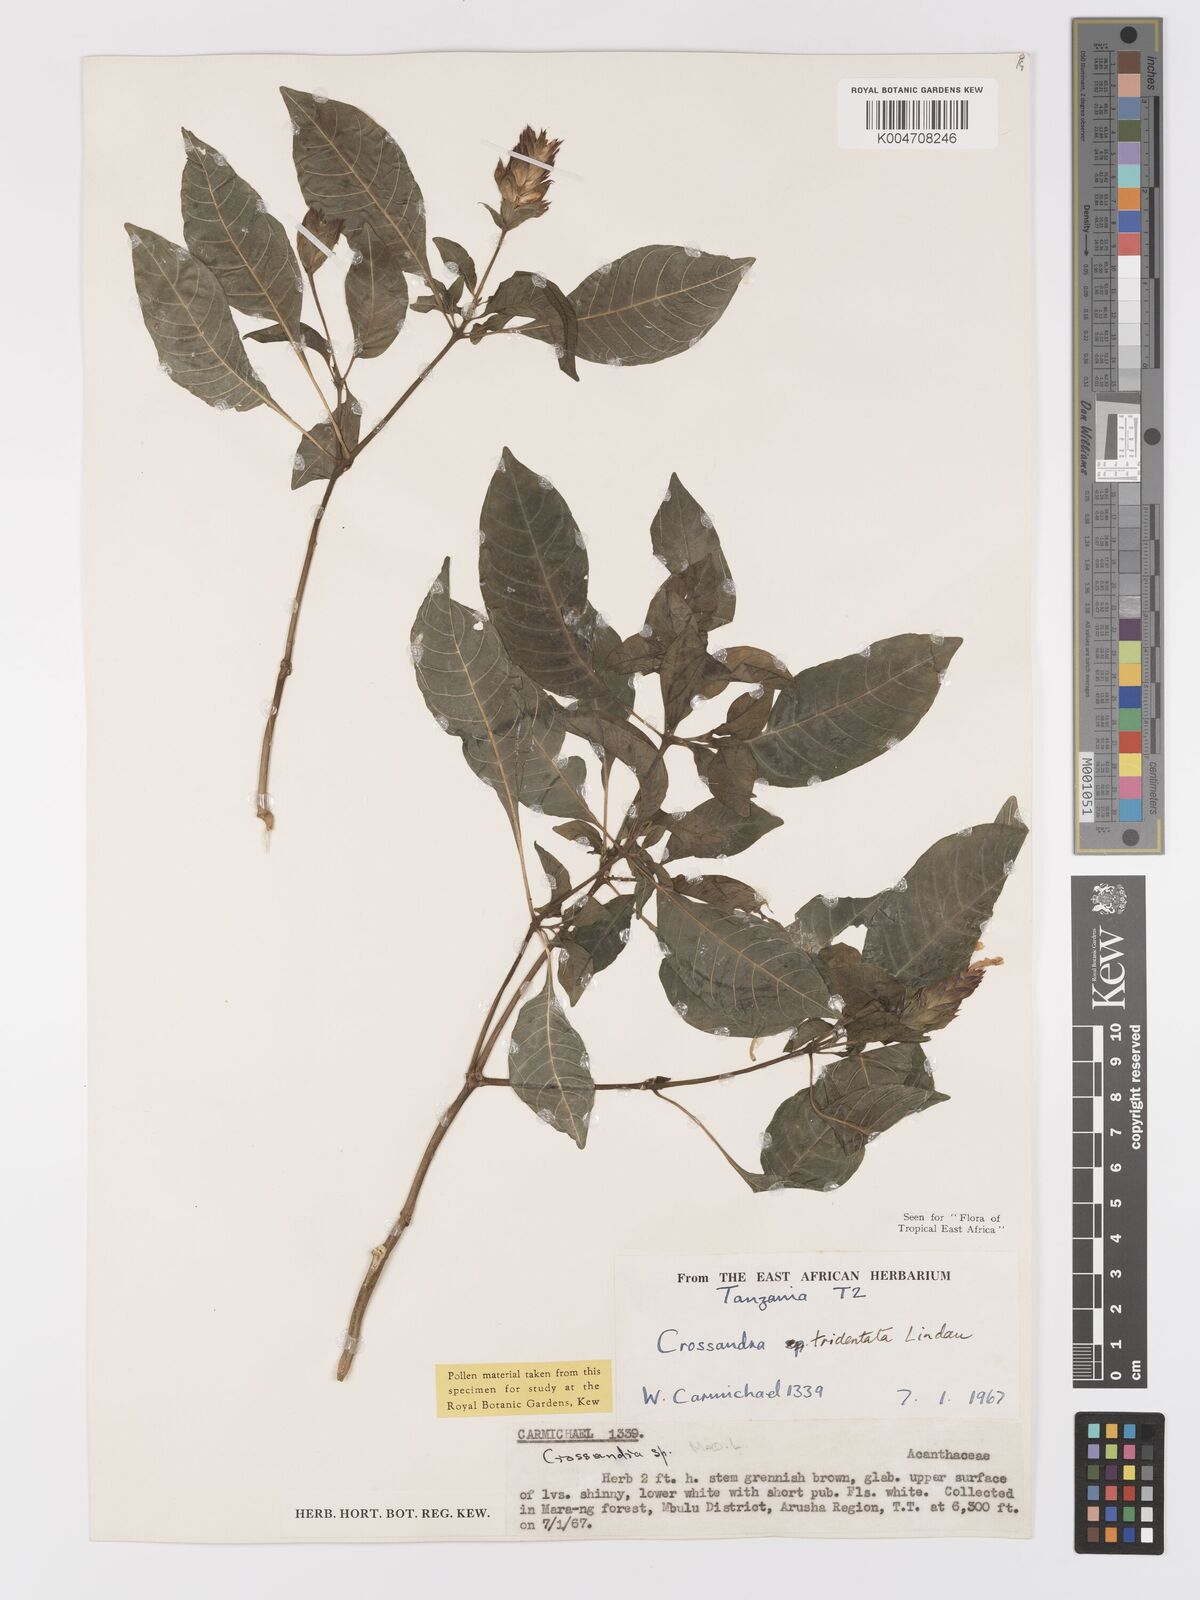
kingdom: Plantae
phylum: Tracheophyta
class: Magnoliopsida
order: Lamiales
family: Acanthaceae
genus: Crossandra
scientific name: Crossandra tridentata
